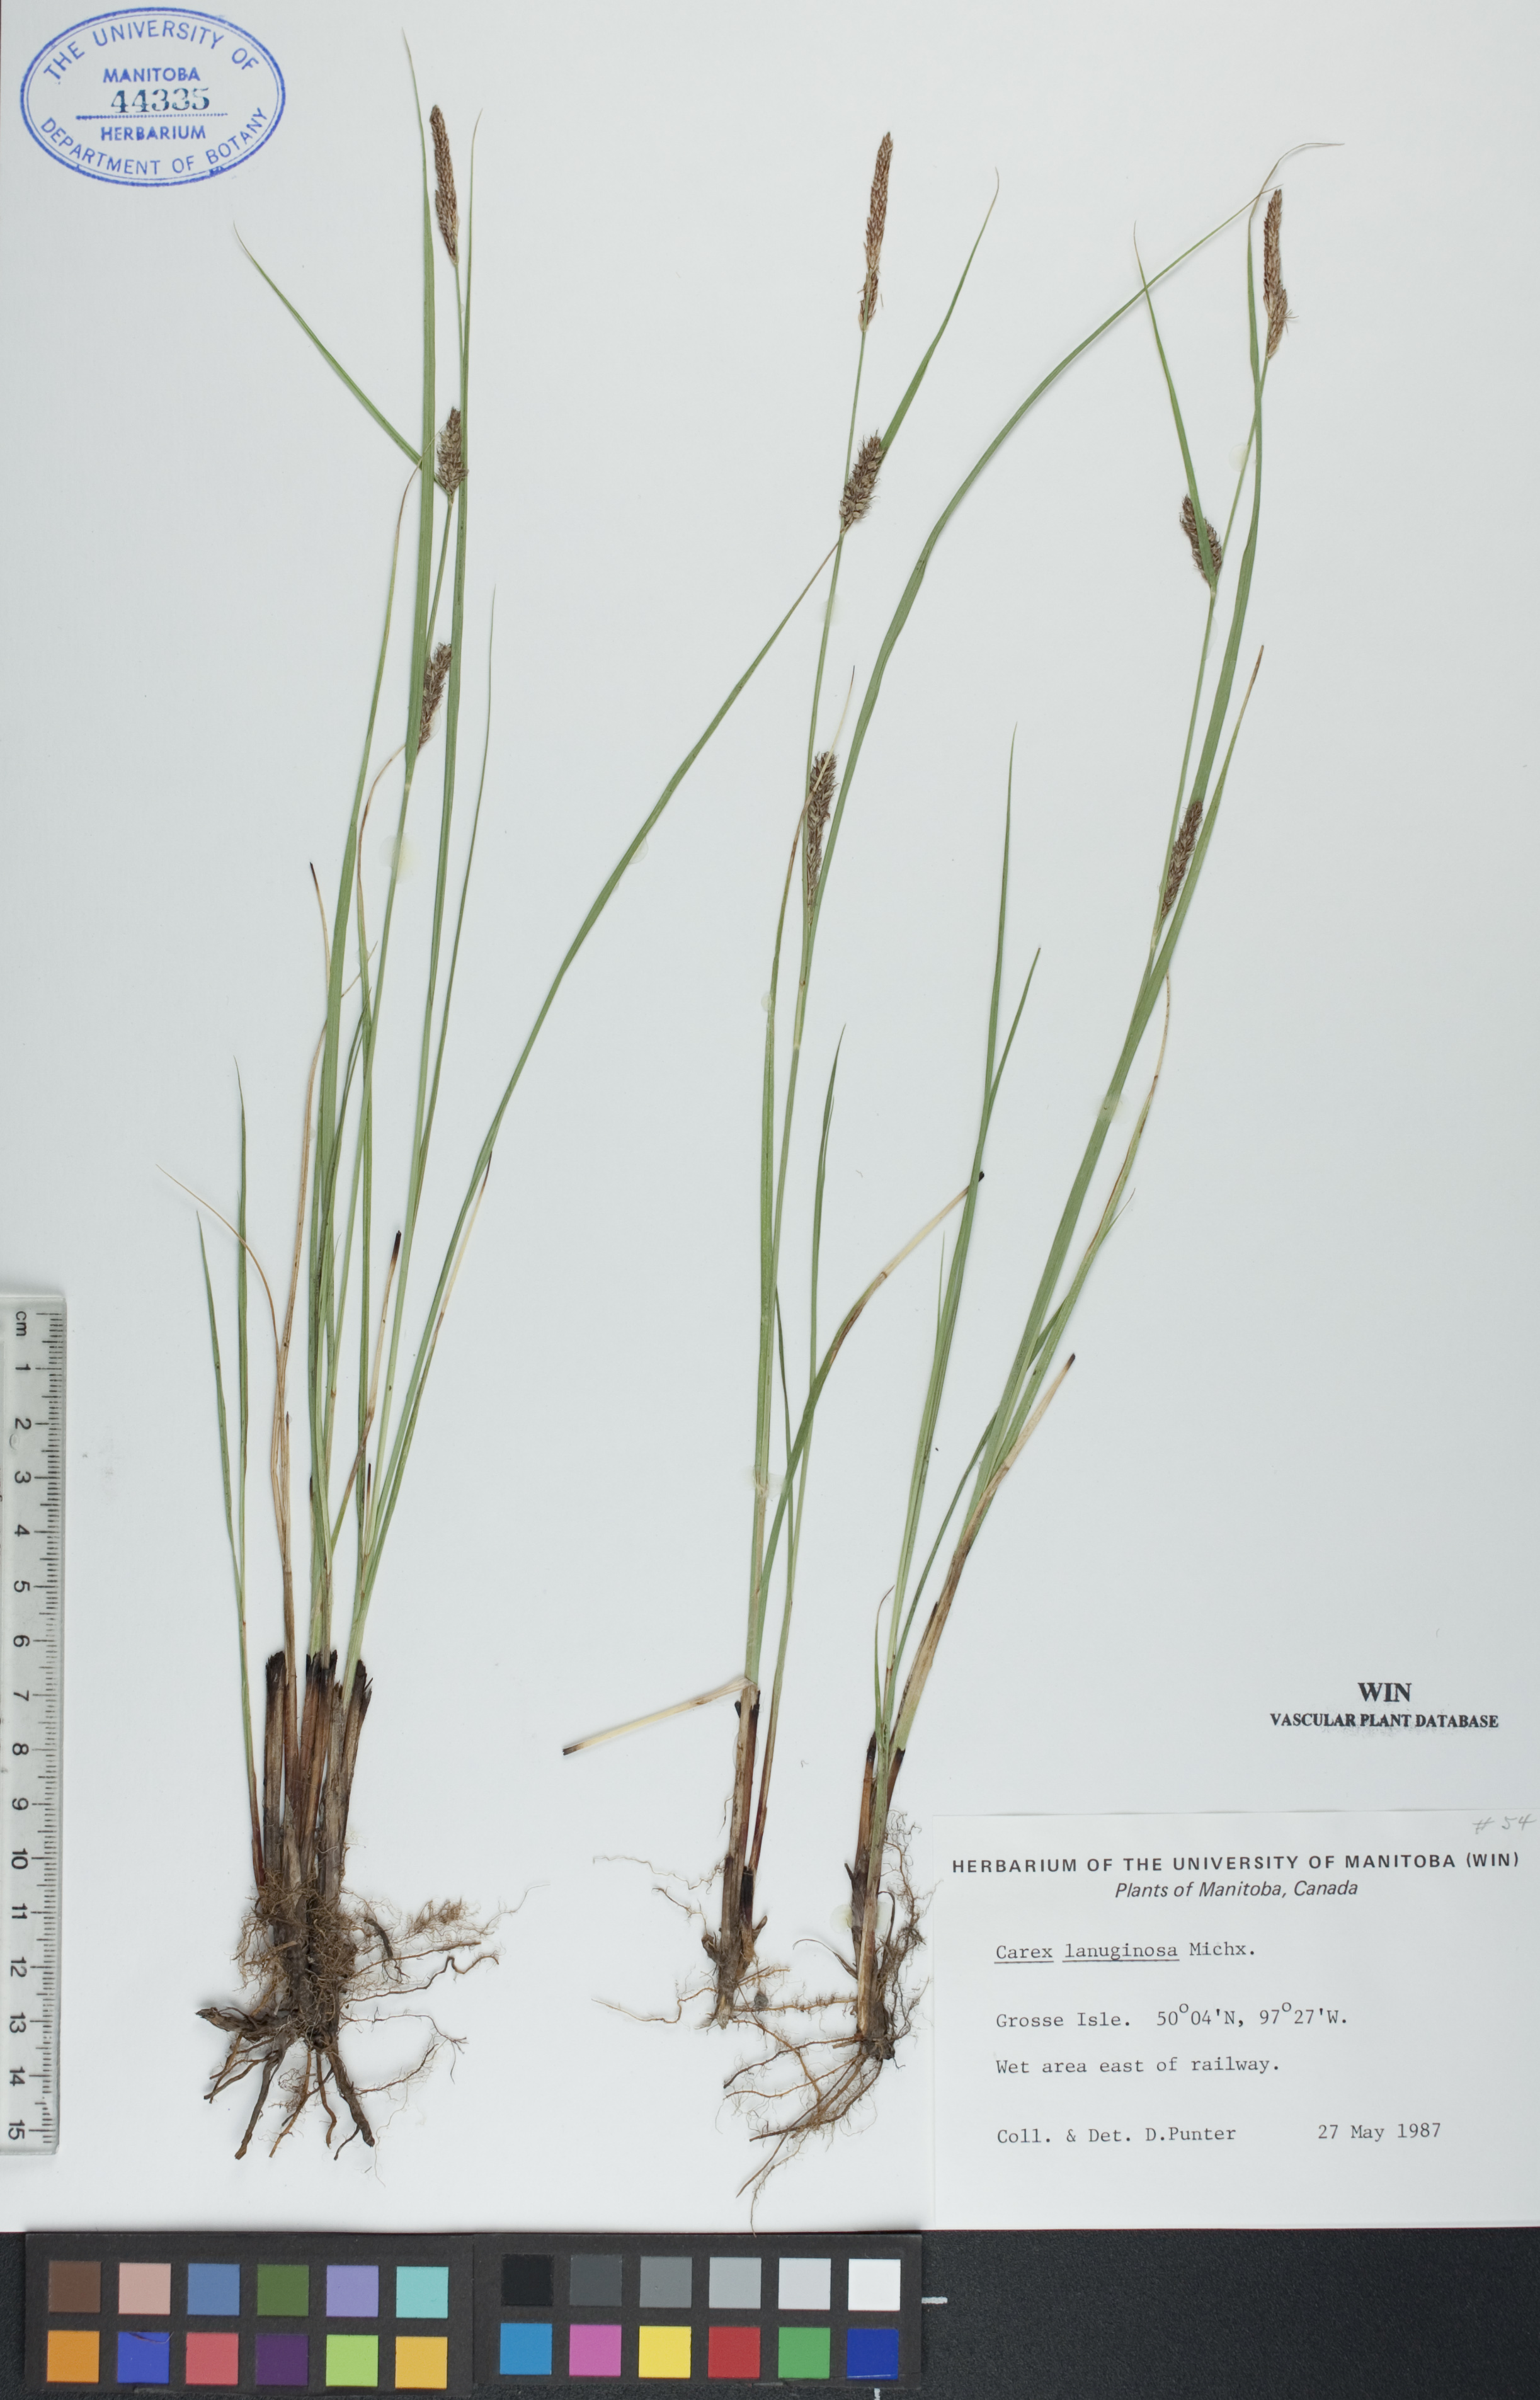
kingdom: Plantae
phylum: Tracheophyta
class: Liliopsida
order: Poales
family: Cyperaceae
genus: Carex
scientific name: Carex lasiocarpa
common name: Slender sedge
